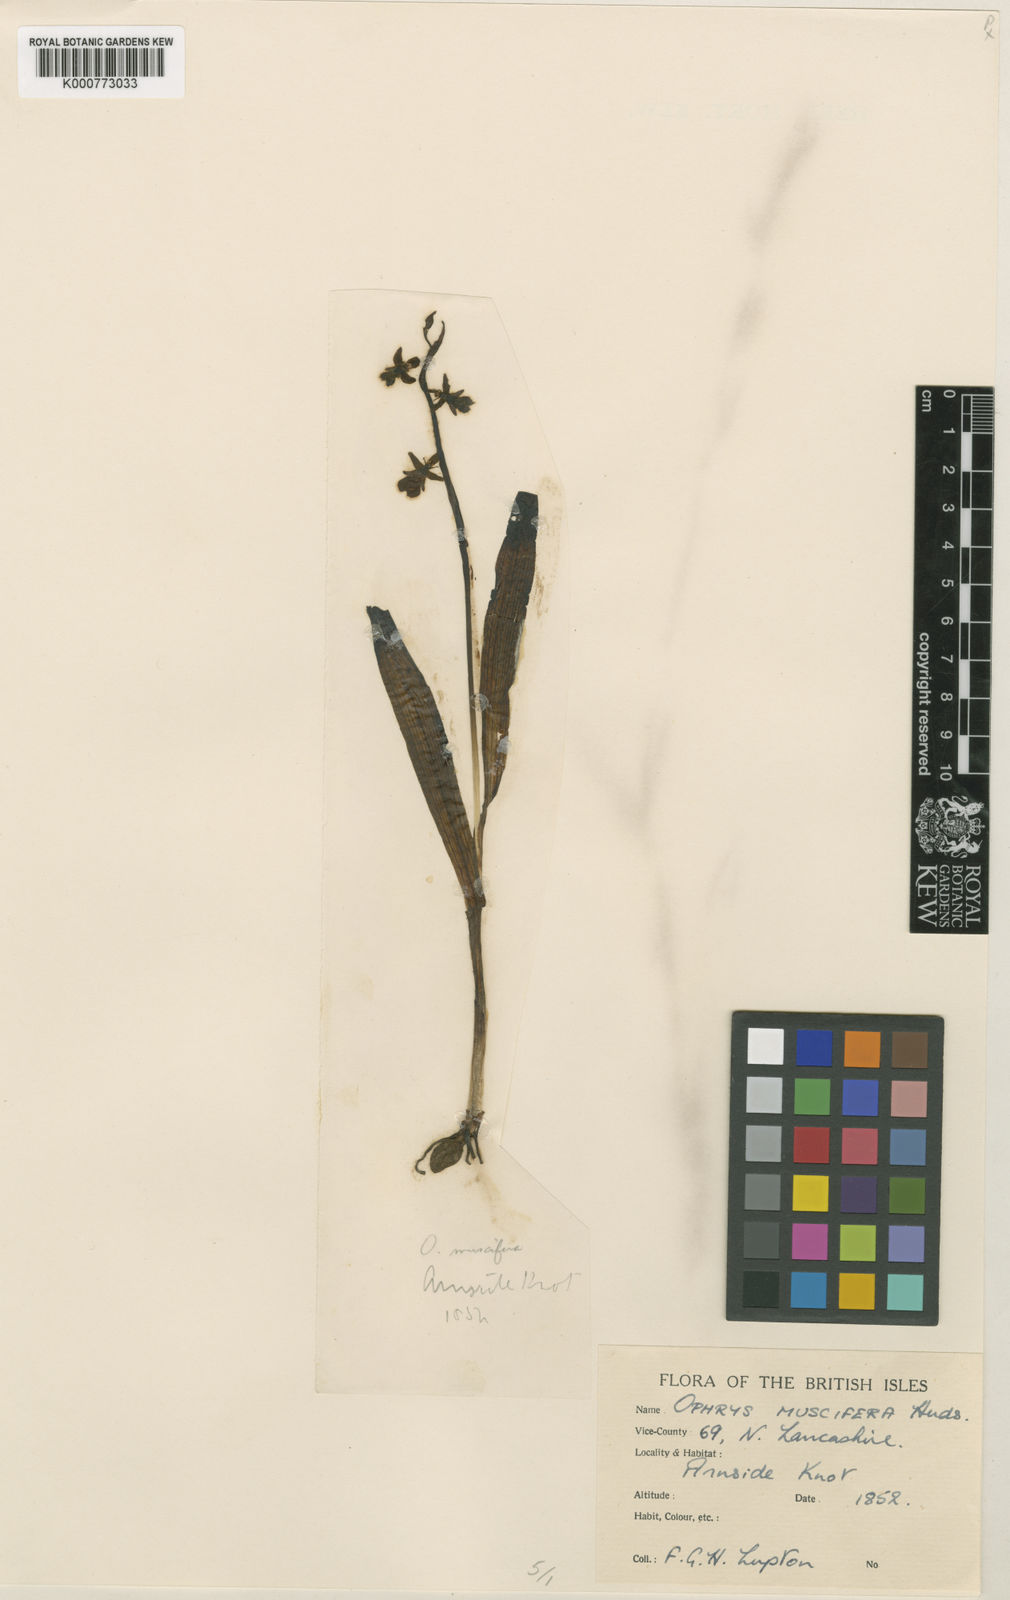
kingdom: Plantae
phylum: Tracheophyta
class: Liliopsida
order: Asparagales
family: Orchidaceae
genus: Ophrys
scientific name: Ophrys insectifera
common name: Fly orchid
